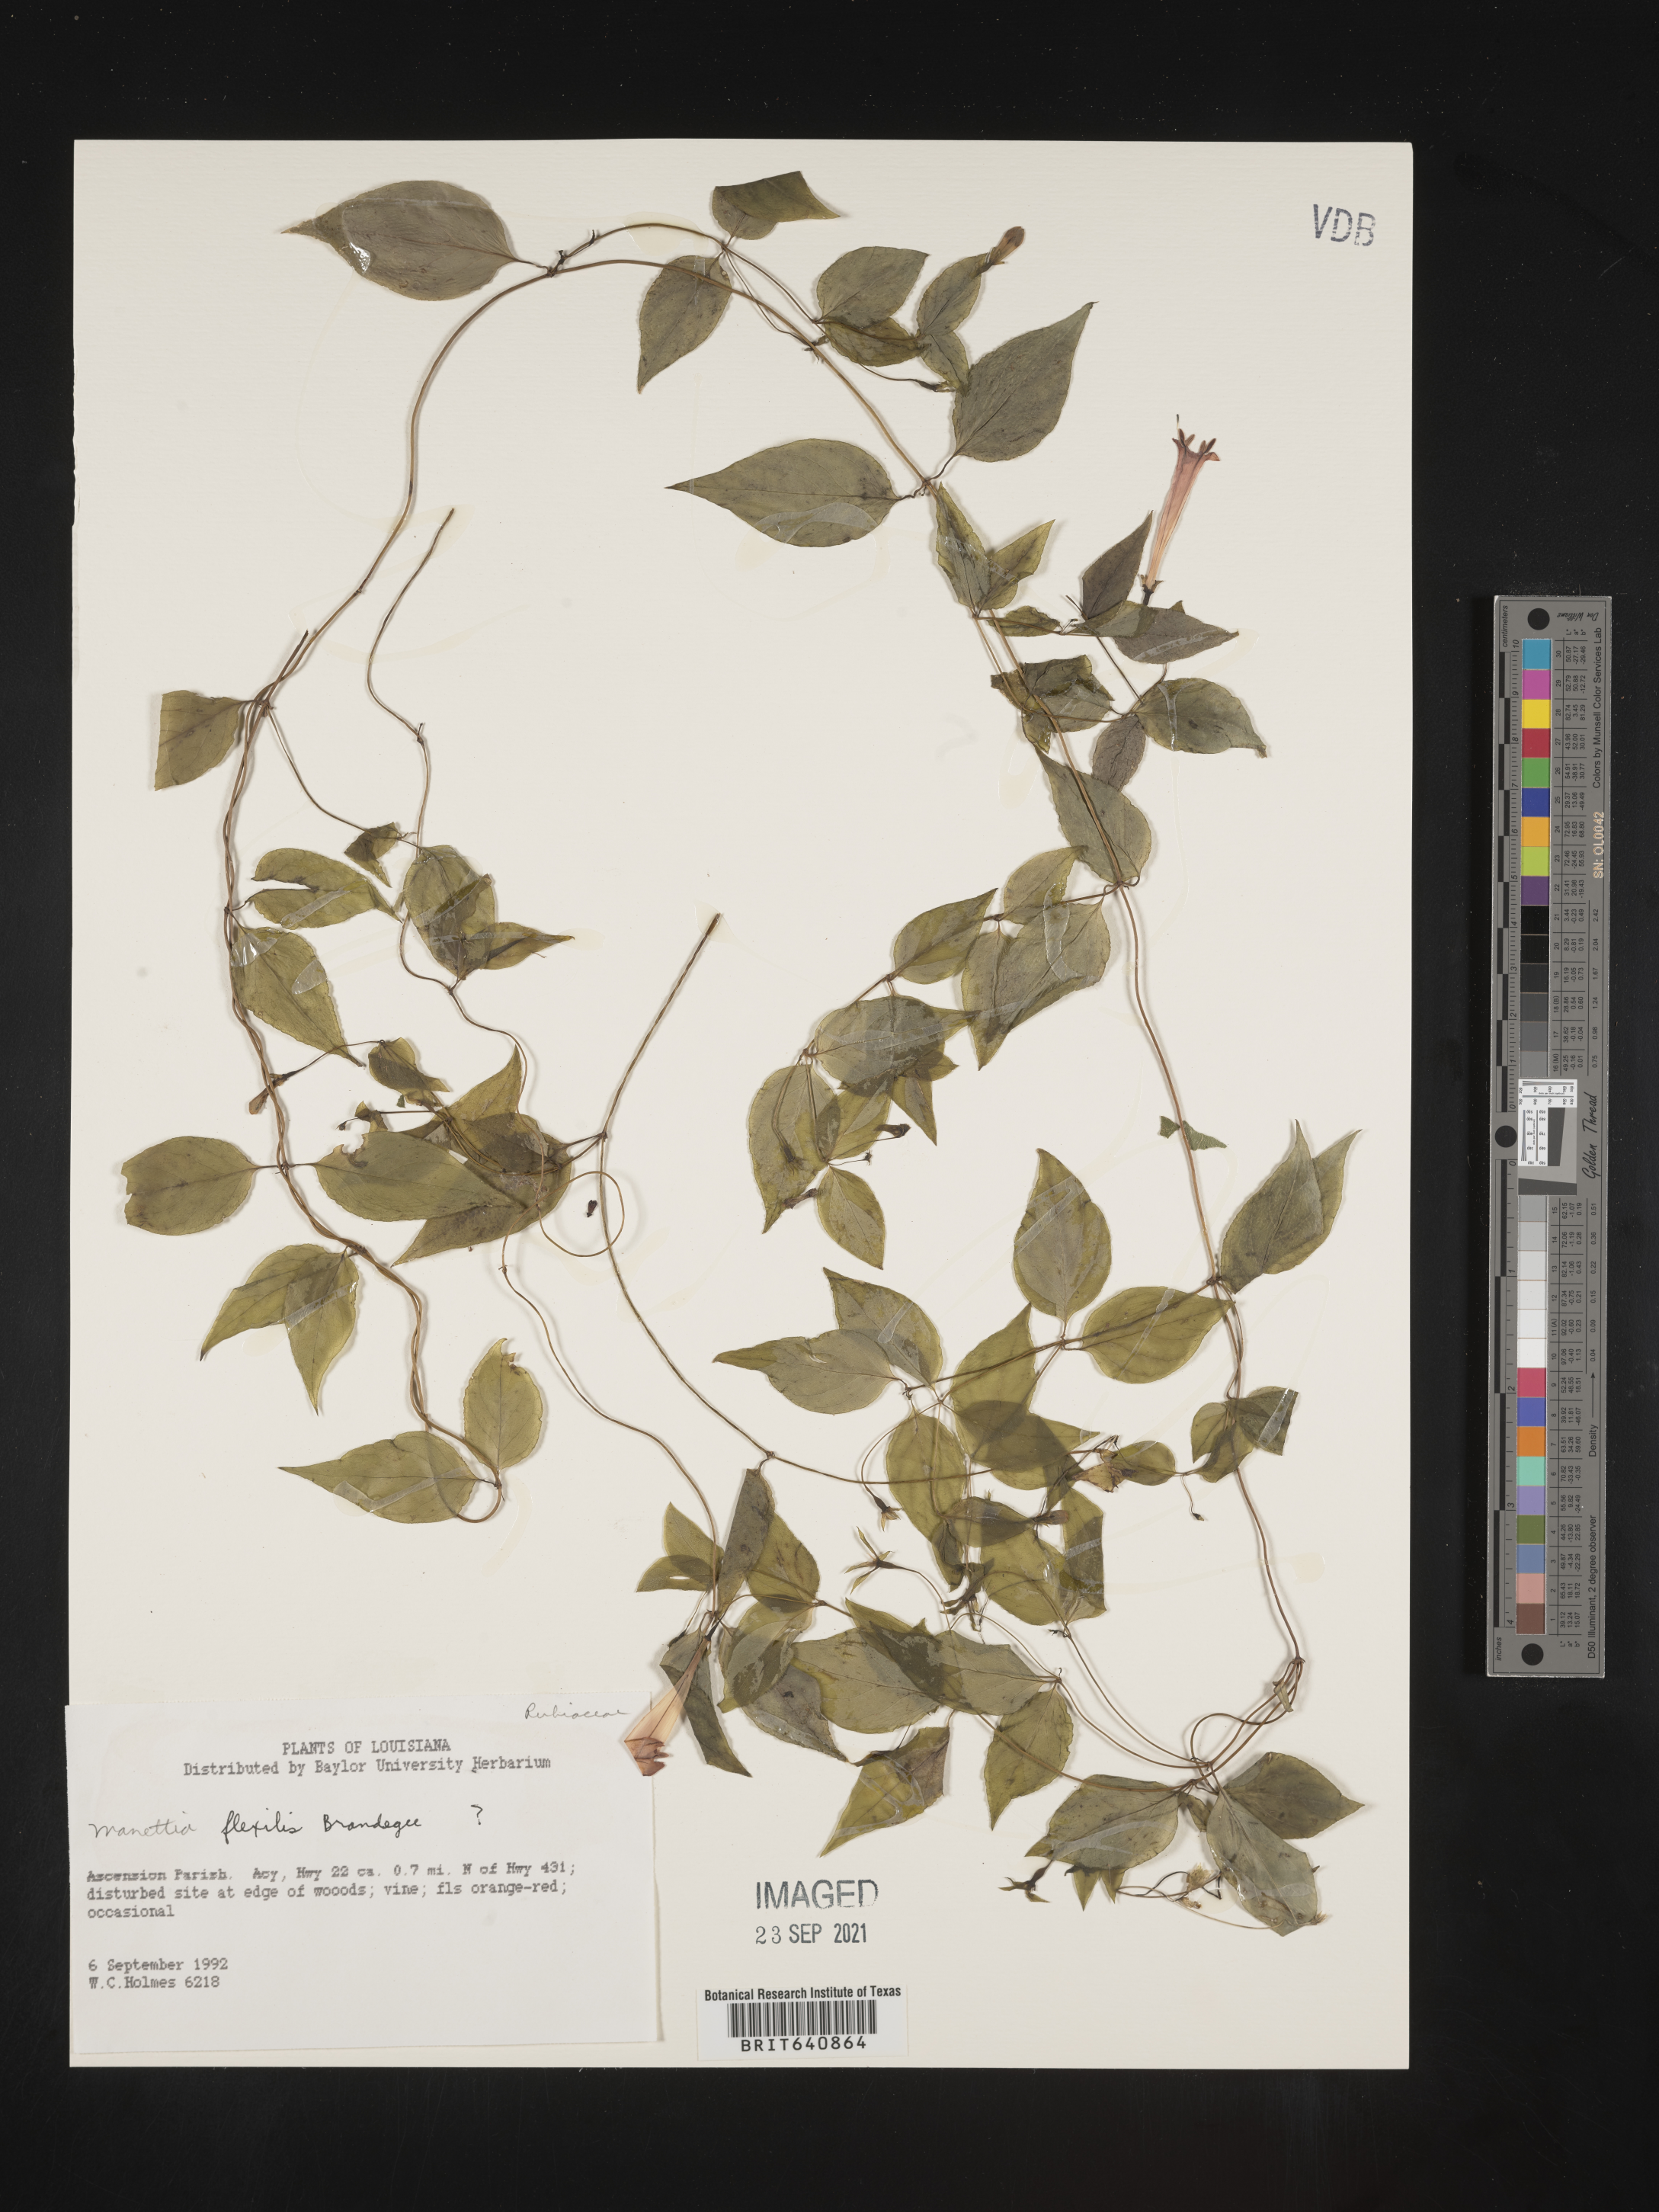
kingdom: Plantae
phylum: Tracheophyta
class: Magnoliopsida
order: Gentianales
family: Rubiaceae
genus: Manettia
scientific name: Manettia
